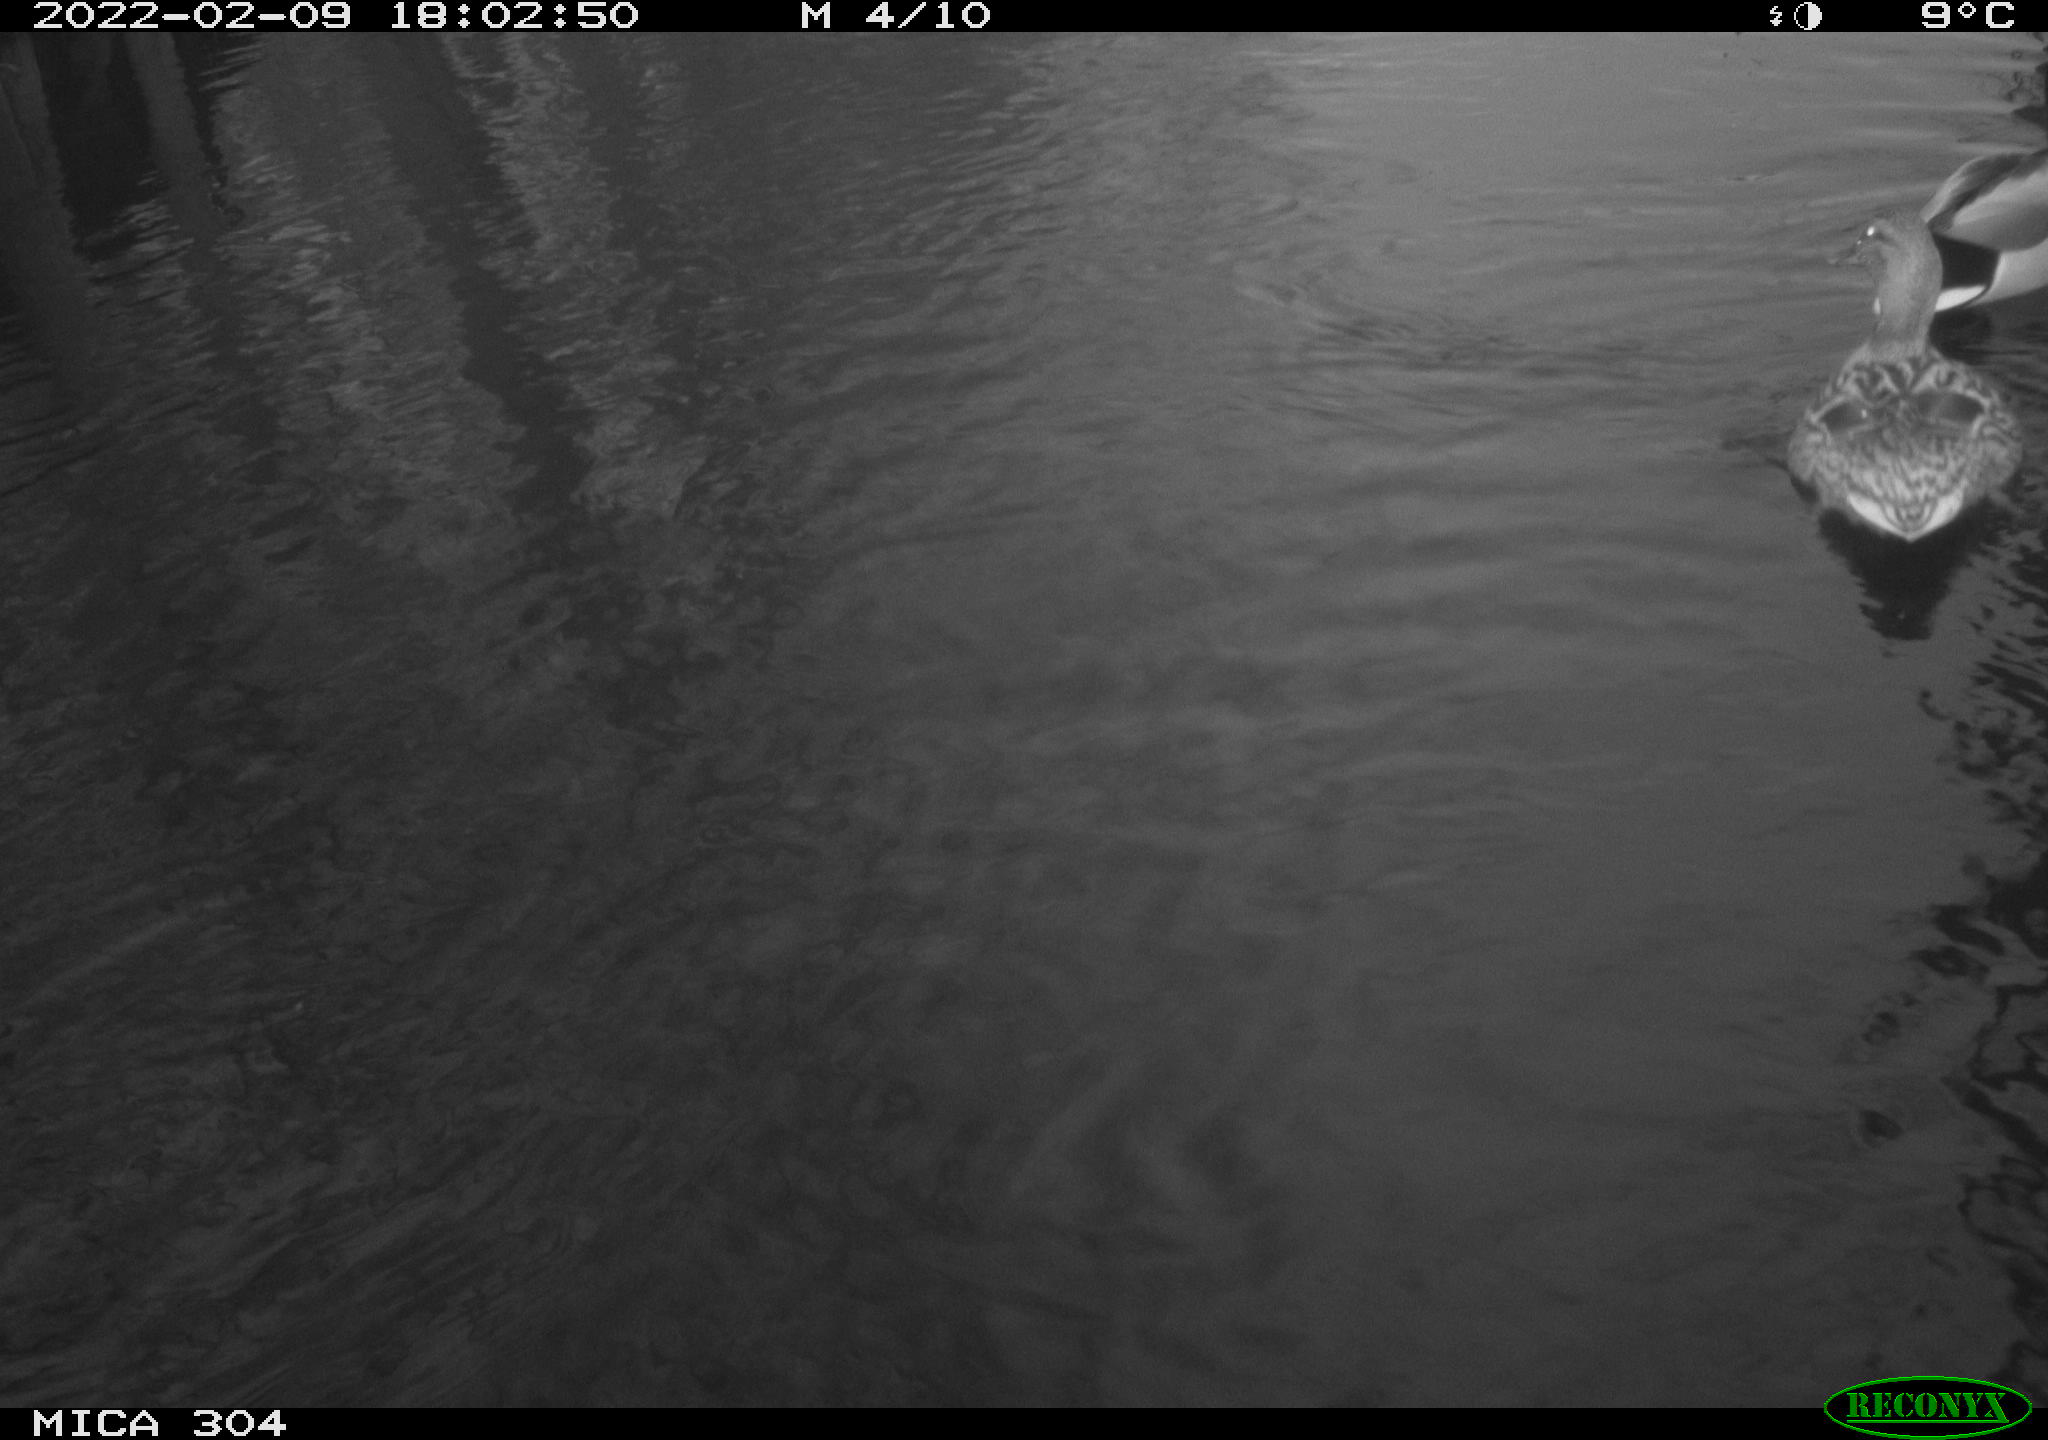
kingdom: Animalia
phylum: Chordata
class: Aves
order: Anseriformes
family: Anatidae
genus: Mareca
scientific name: Mareca strepera
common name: Gadwall
